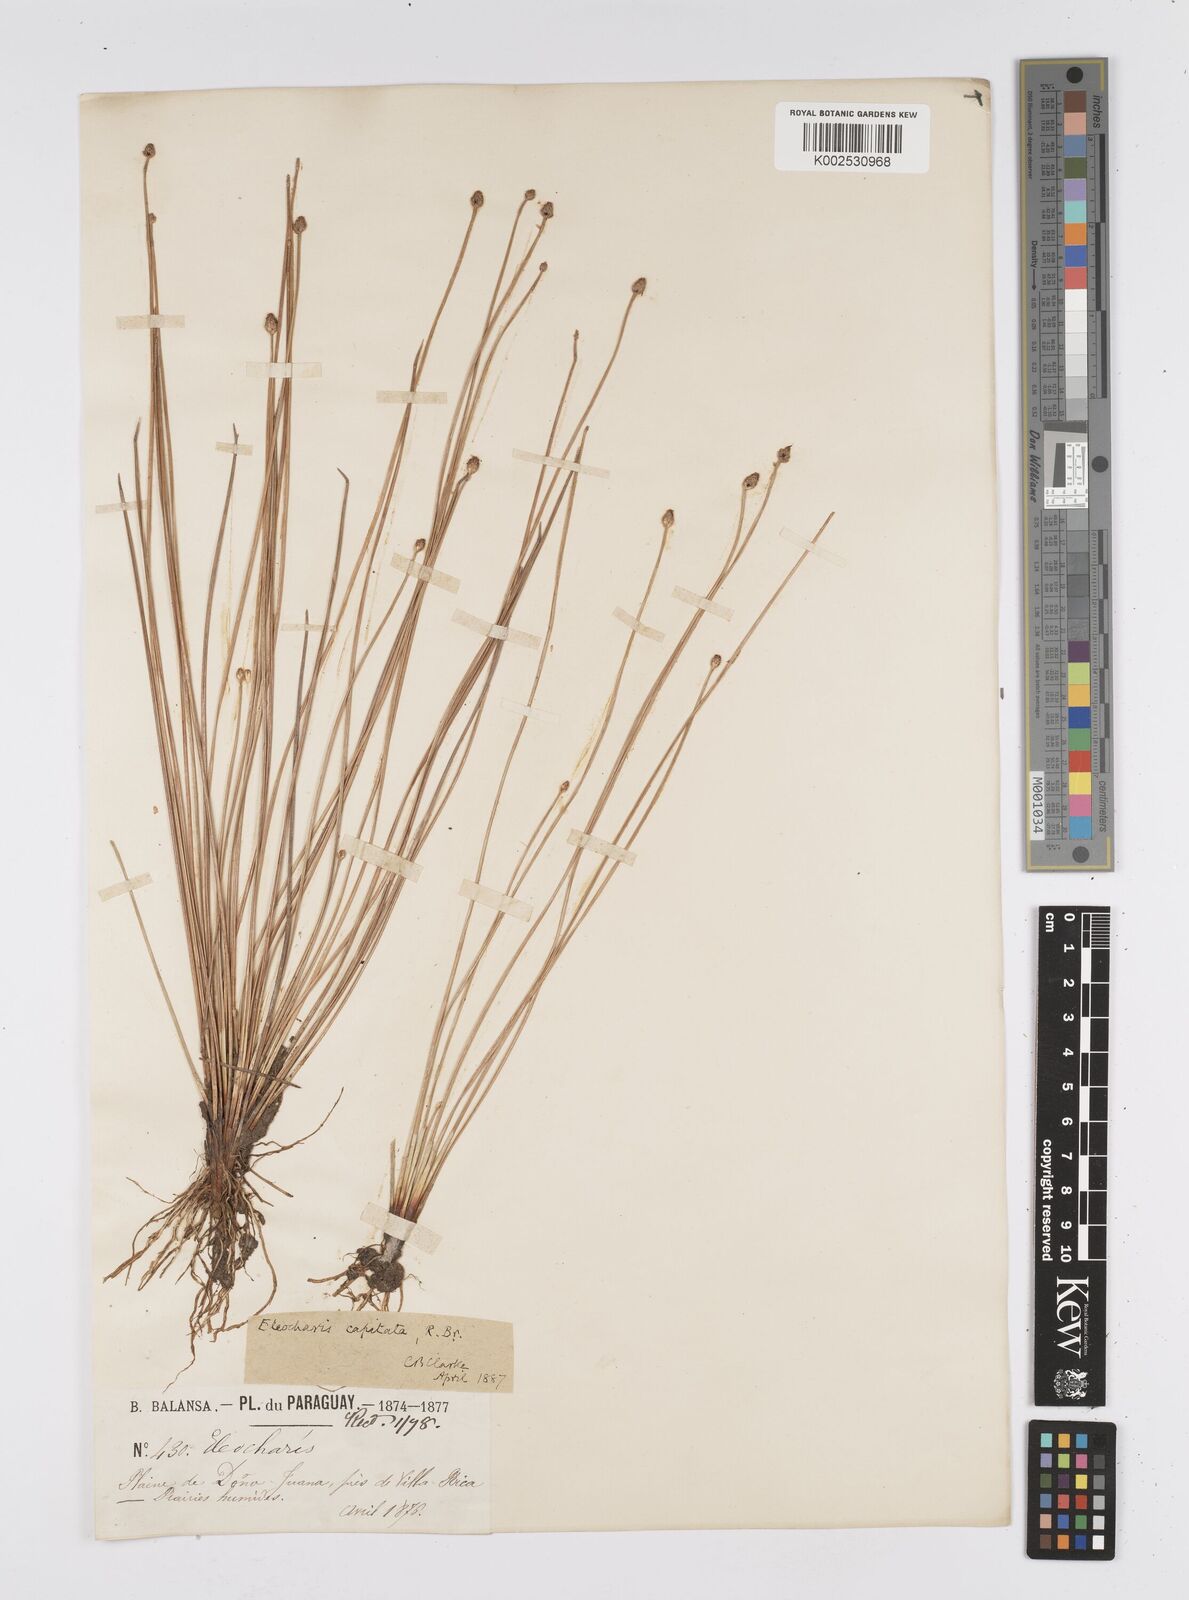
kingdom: Plantae
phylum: Tracheophyta
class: Liliopsida
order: Poales
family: Cyperaceae
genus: Eleocharis
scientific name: Eleocharis geniculata
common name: Canada spikesedge
